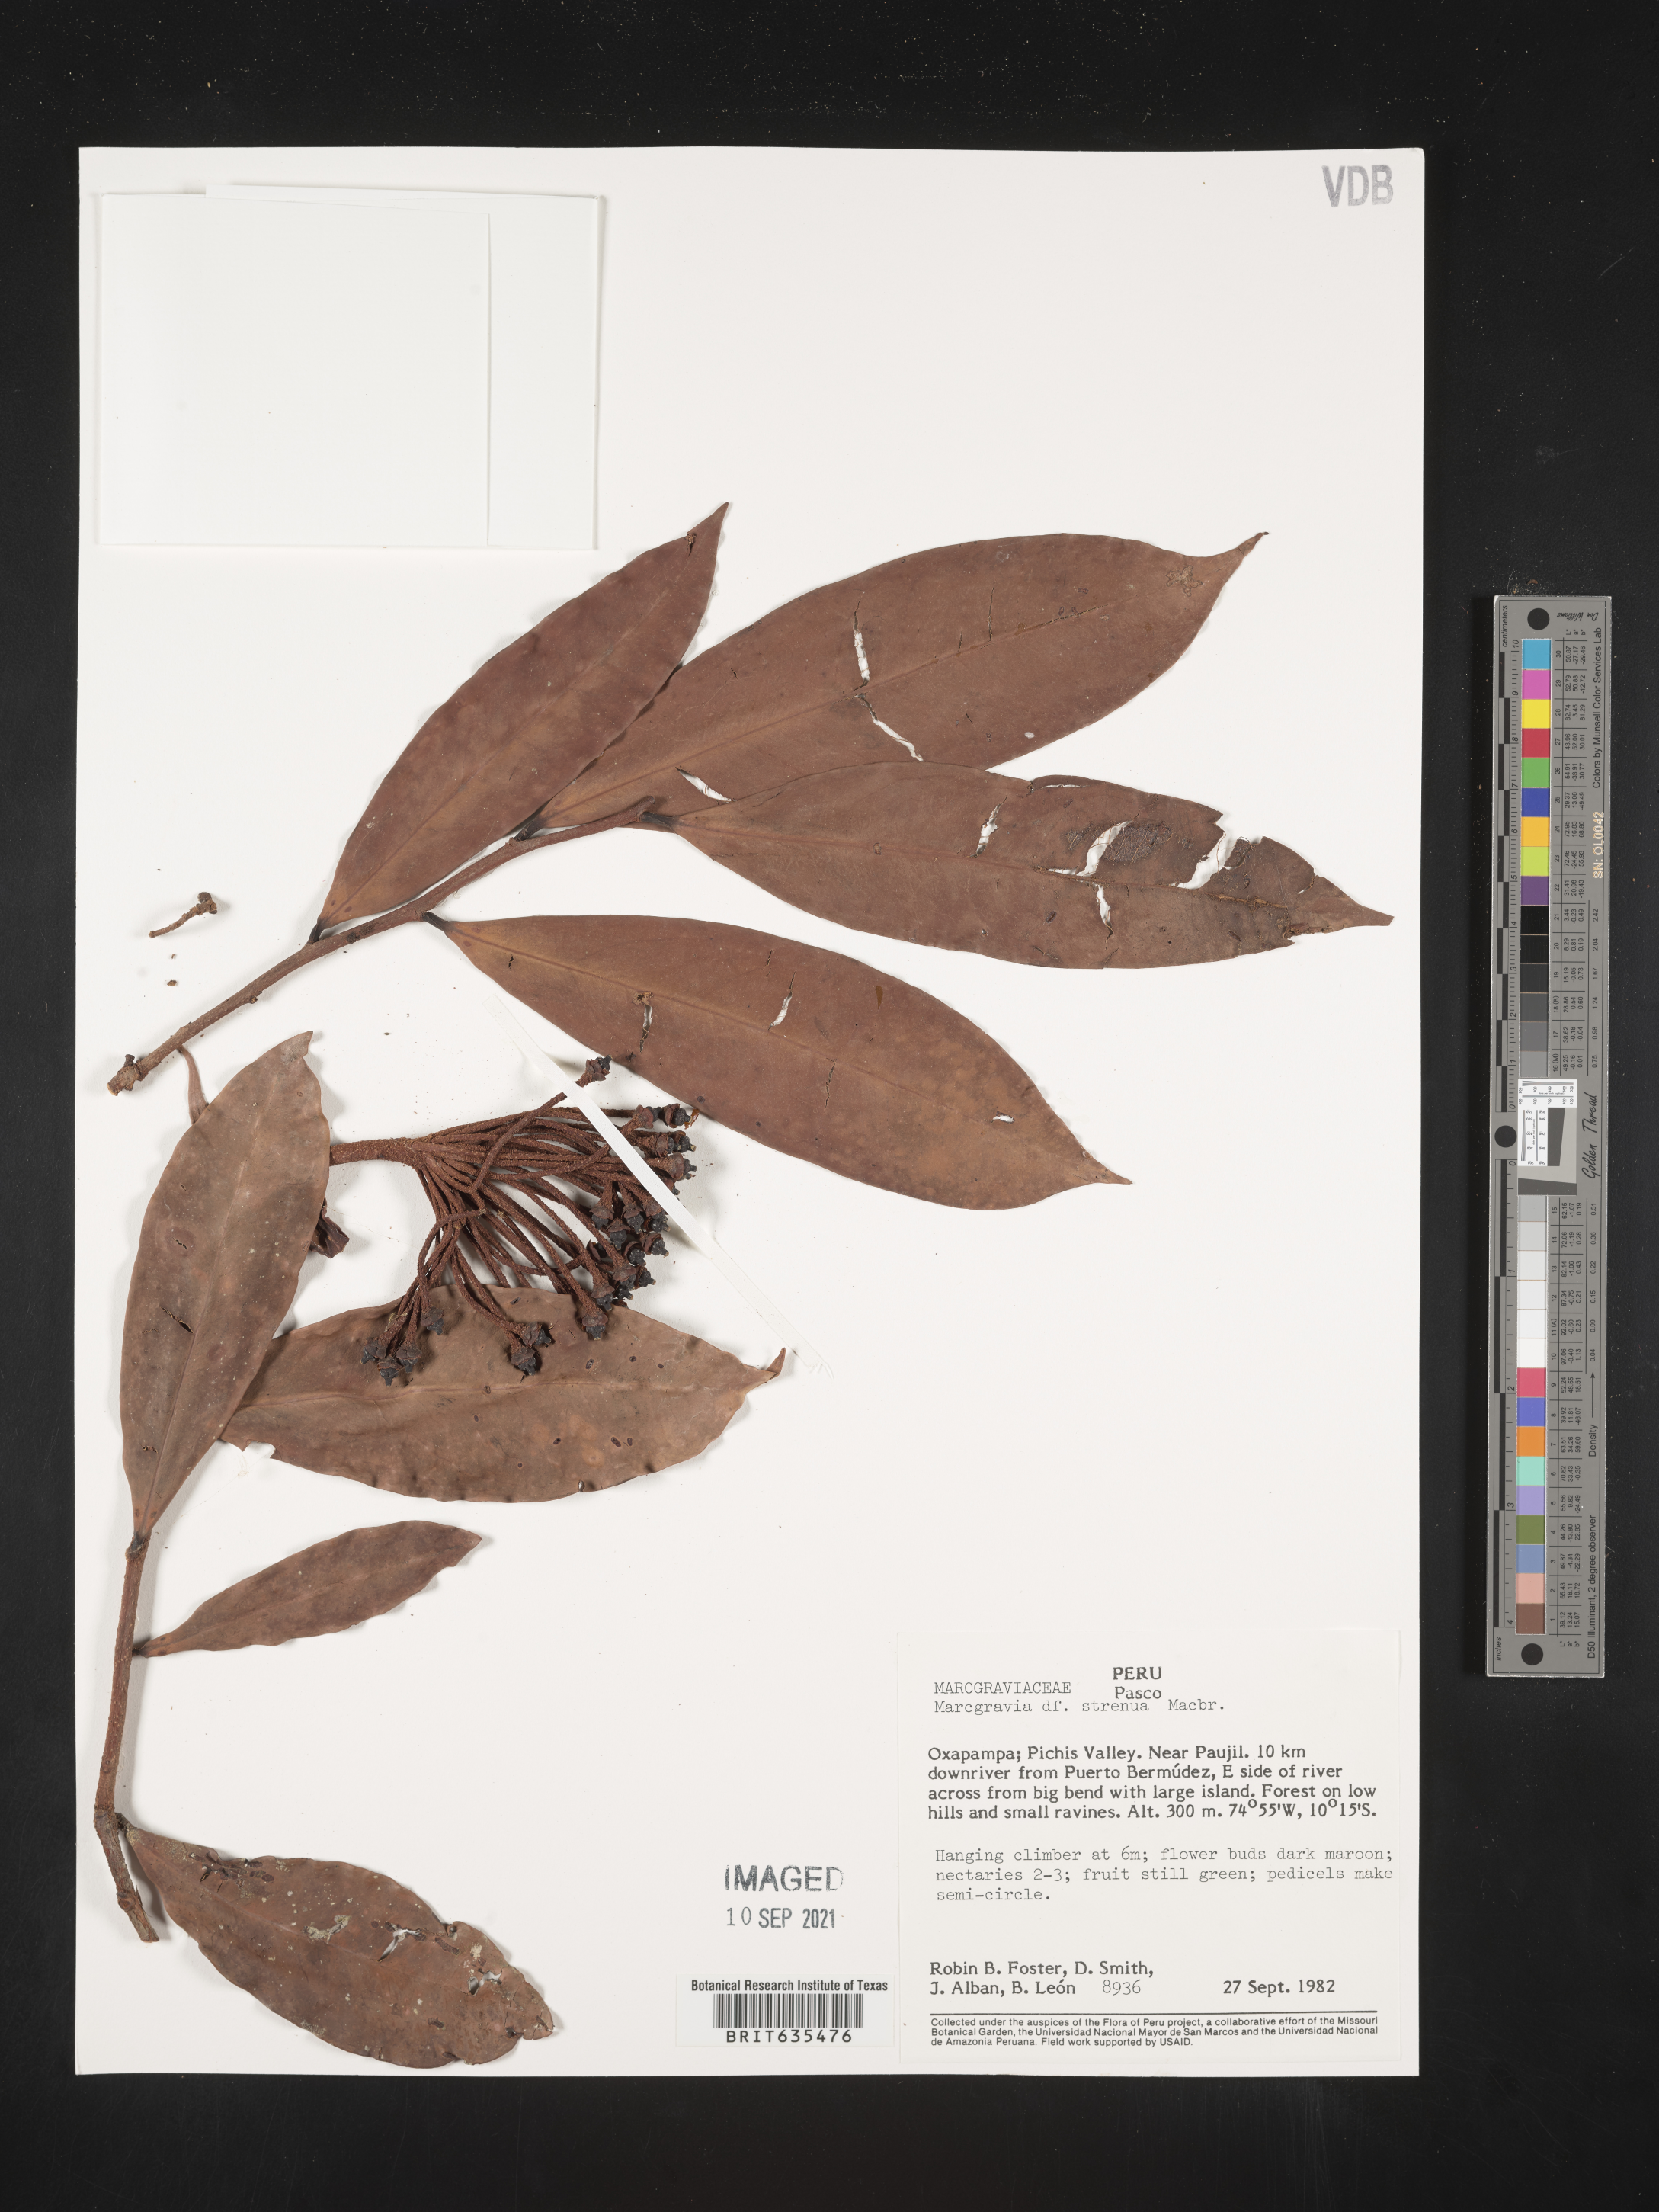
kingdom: Plantae
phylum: Tracheophyta
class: Magnoliopsida
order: Ericales
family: Marcgraviaceae
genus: Marcgravia
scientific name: Marcgravia
